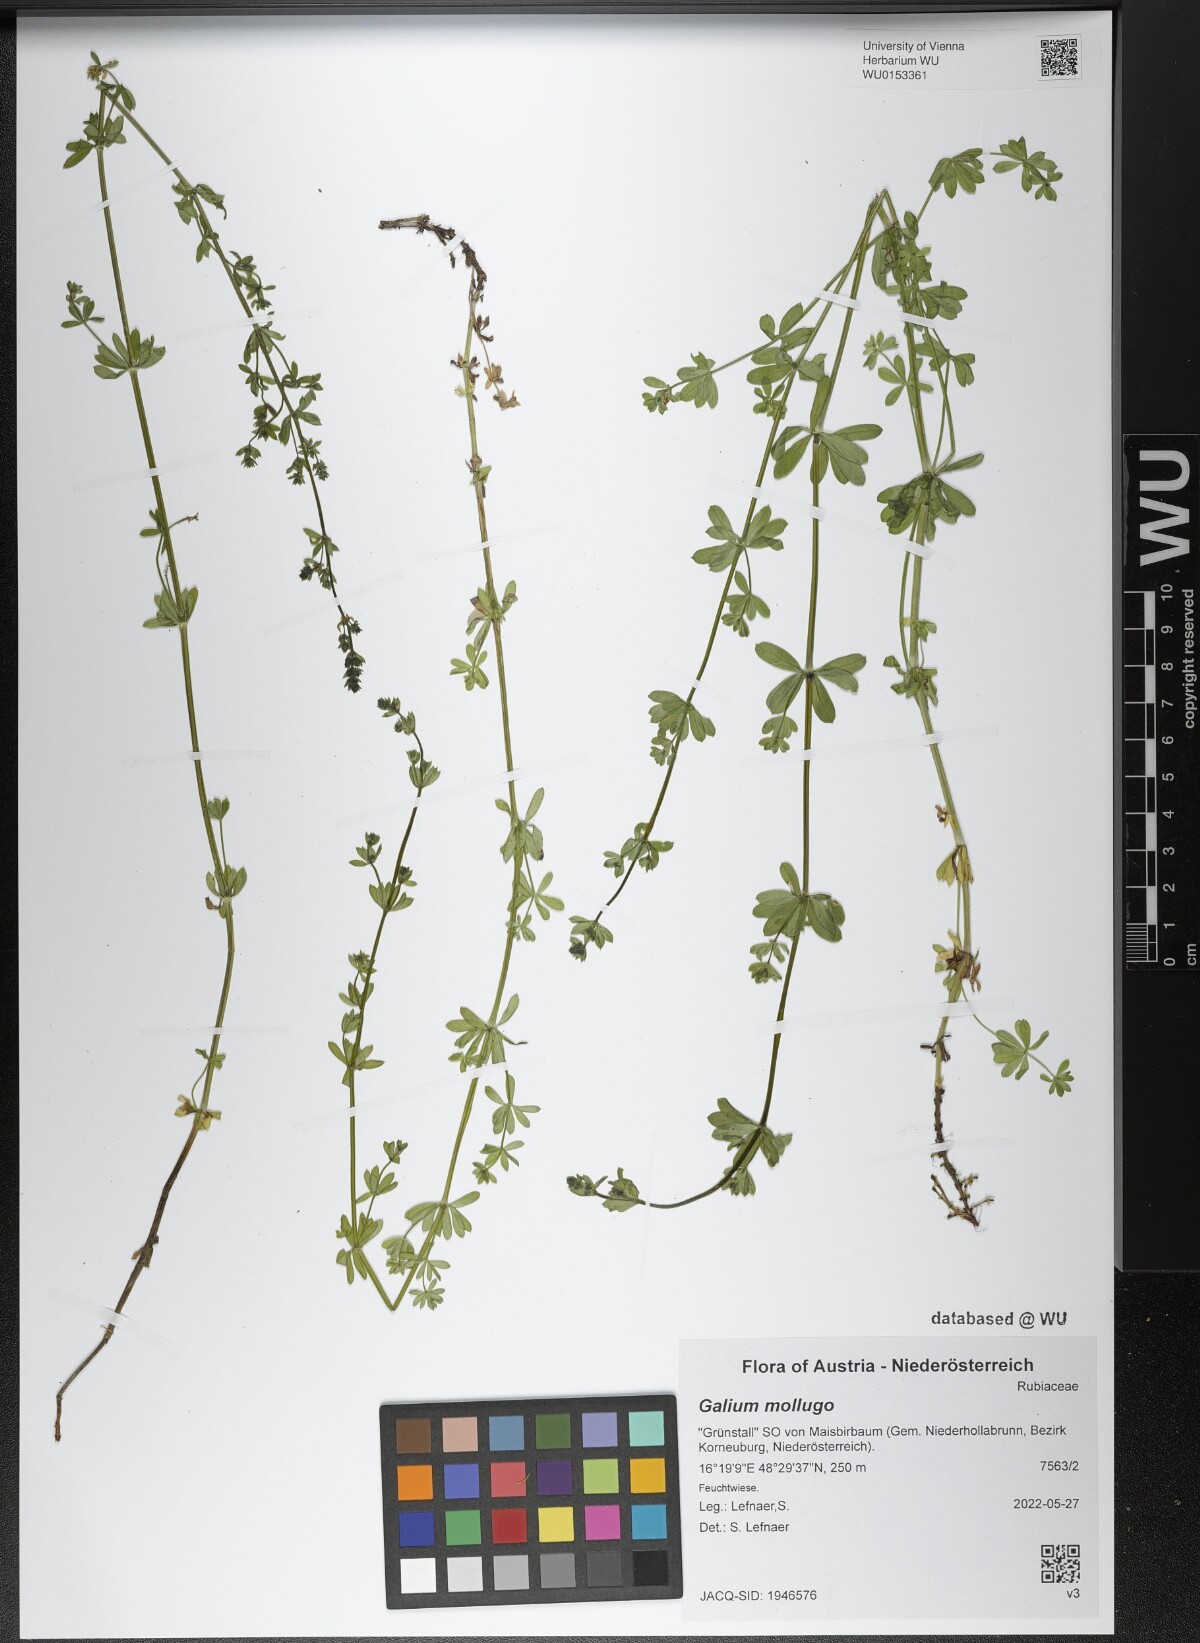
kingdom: Plantae
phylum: Tracheophyta
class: Magnoliopsida
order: Gentianales
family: Rubiaceae
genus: Galium
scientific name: Galium mollugo
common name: Hedge bedstraw
